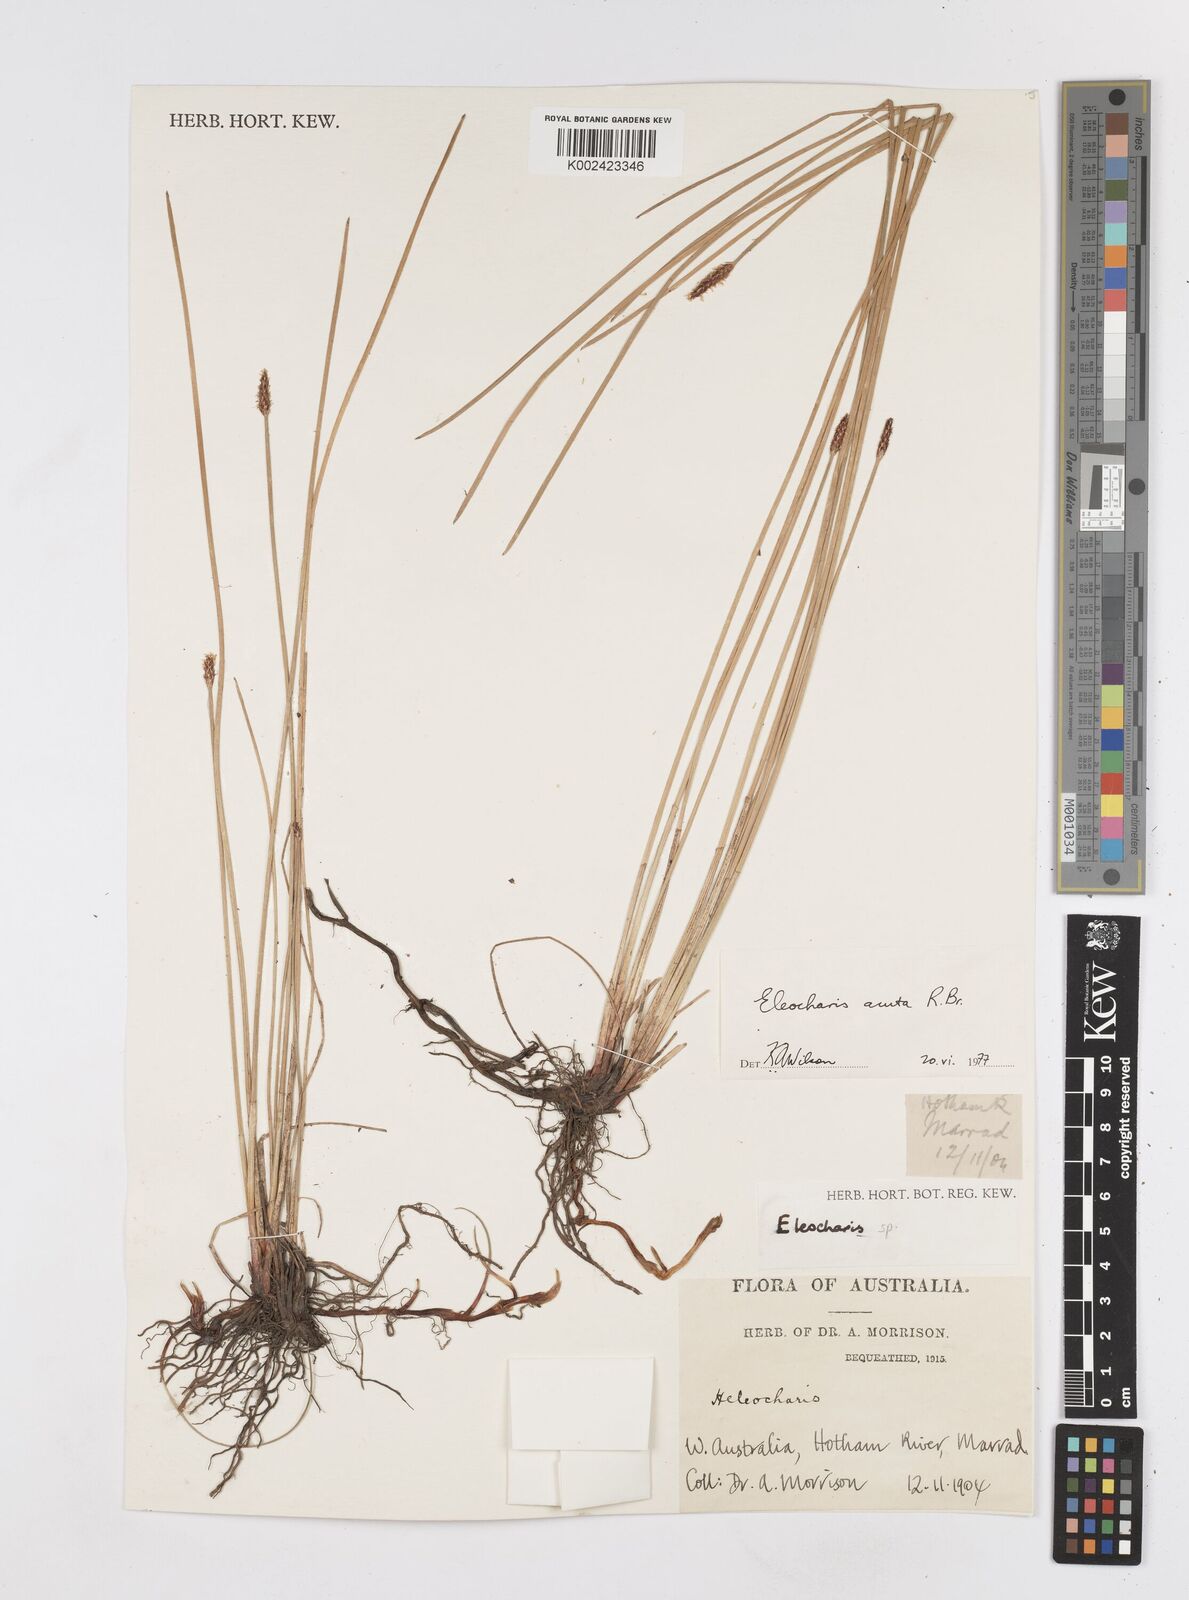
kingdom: Plantae
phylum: Tracheophyta
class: Liliopsida
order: Poales
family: Cyperaceae
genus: Eleocharis
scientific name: Eleocharis acuta
